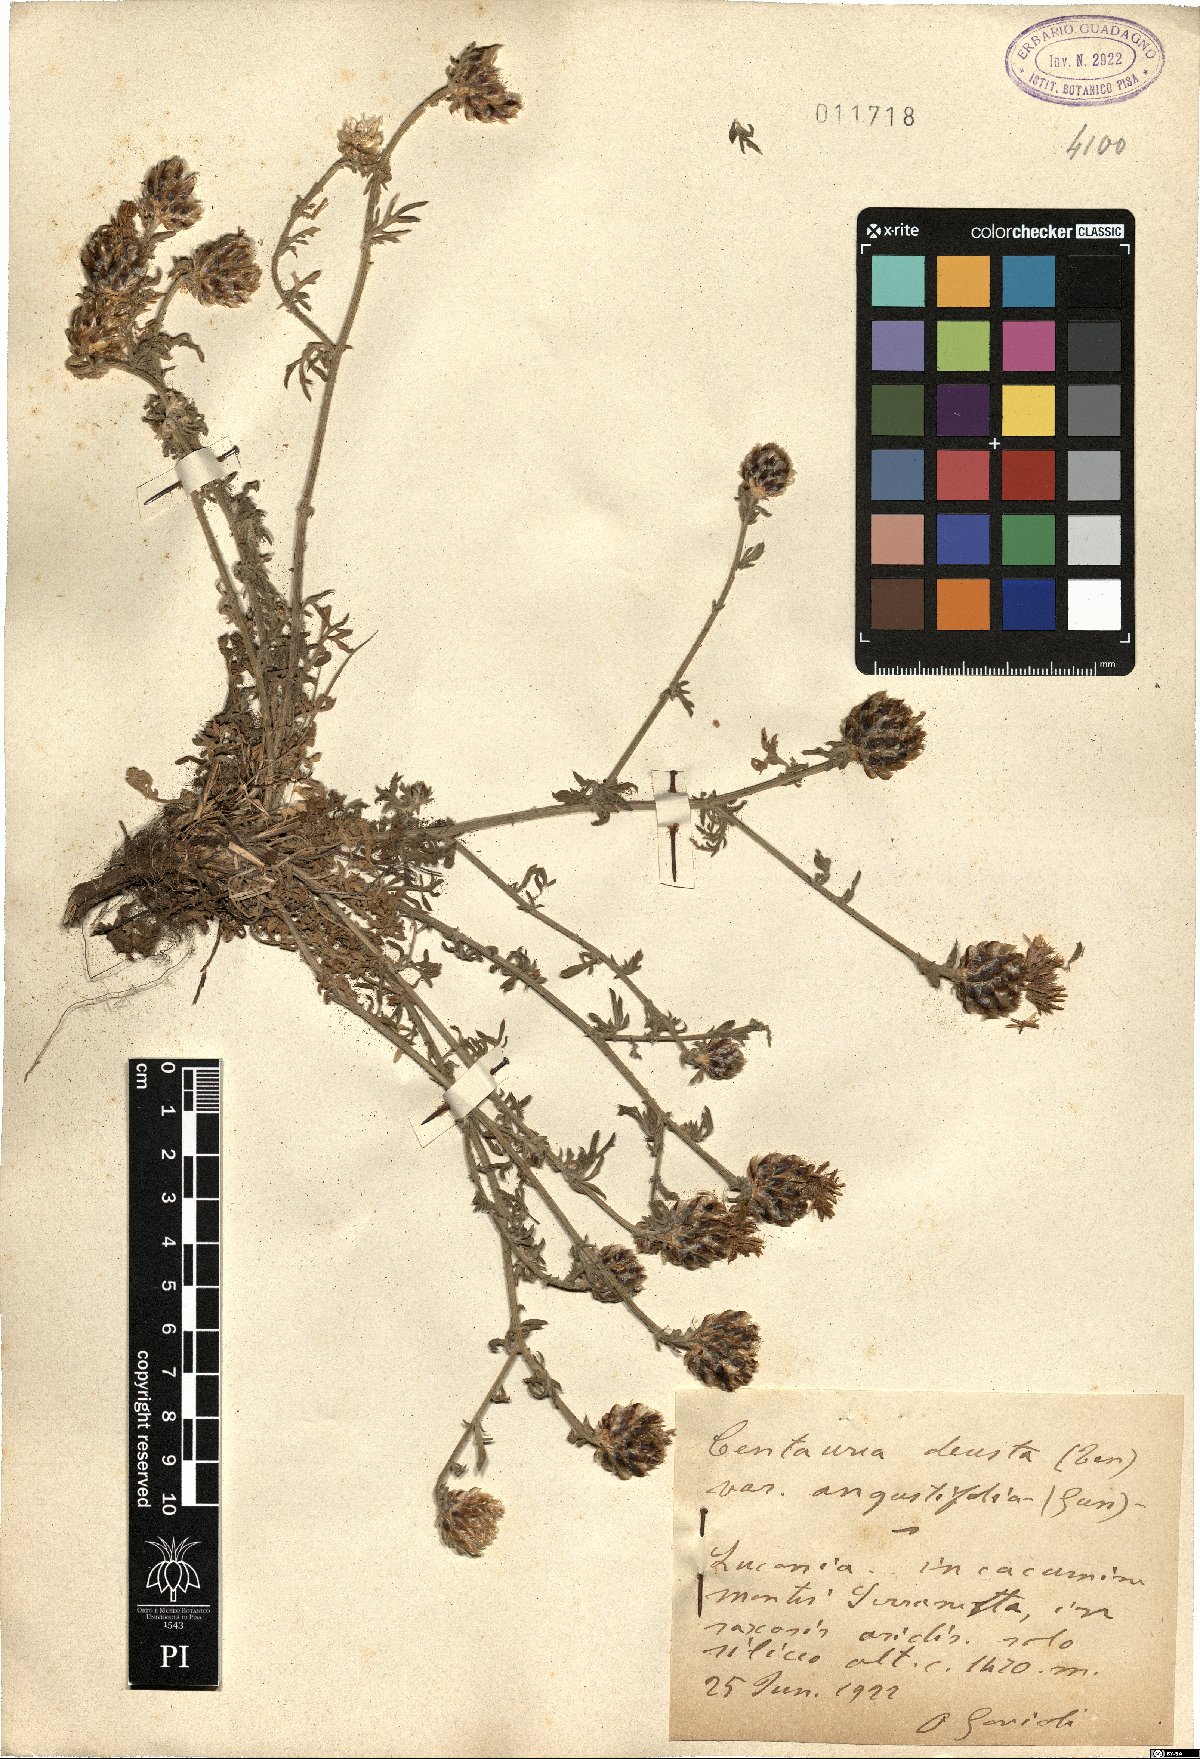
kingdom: Plantae
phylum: Tracheophyta
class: Magnoliopsida
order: Asterales
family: Asteraceae
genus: Centaurea
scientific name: Centaurea deusta
